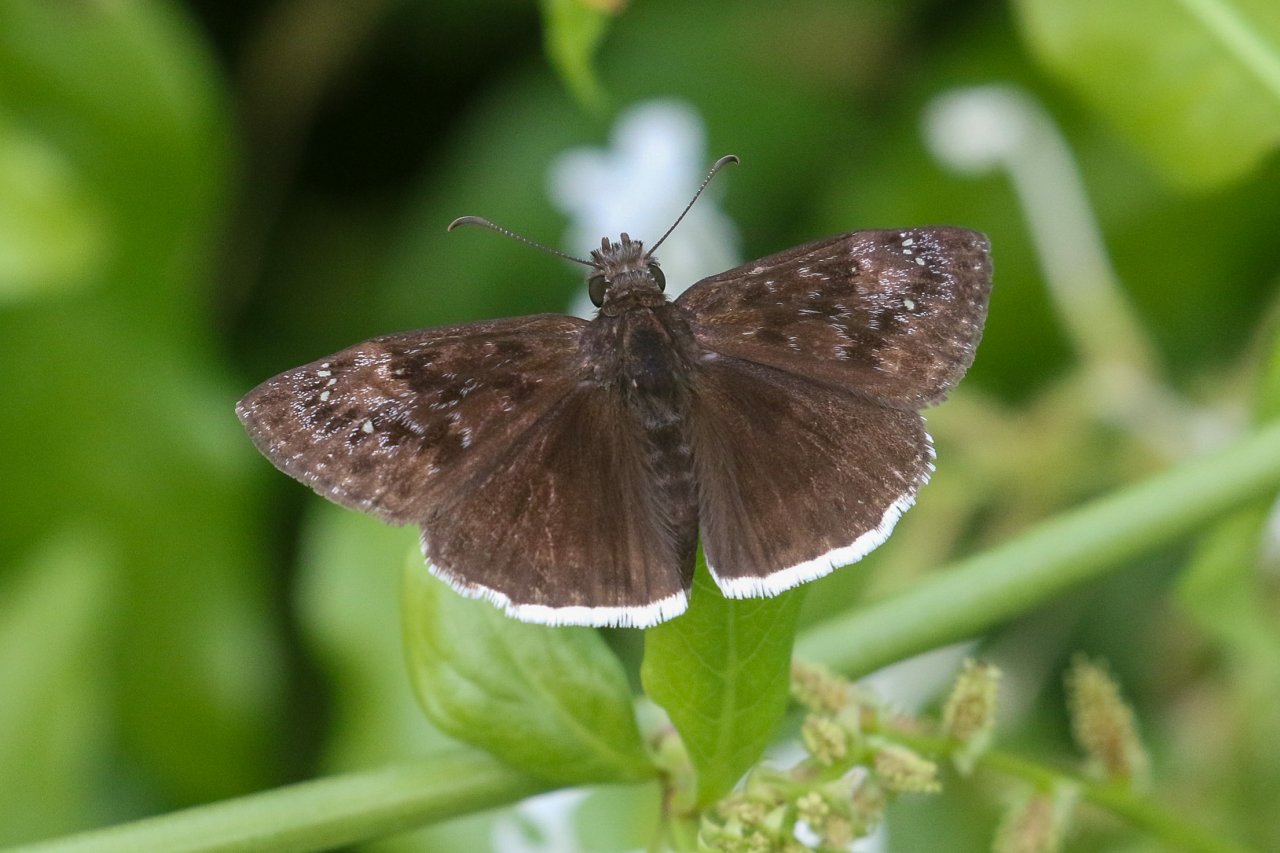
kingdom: Animalia
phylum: Arthropoda
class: Insecta
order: Lepidoptera
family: Hesperiidae
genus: Erynnis
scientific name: Erynnis funeralis
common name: Funereal Duskywing
